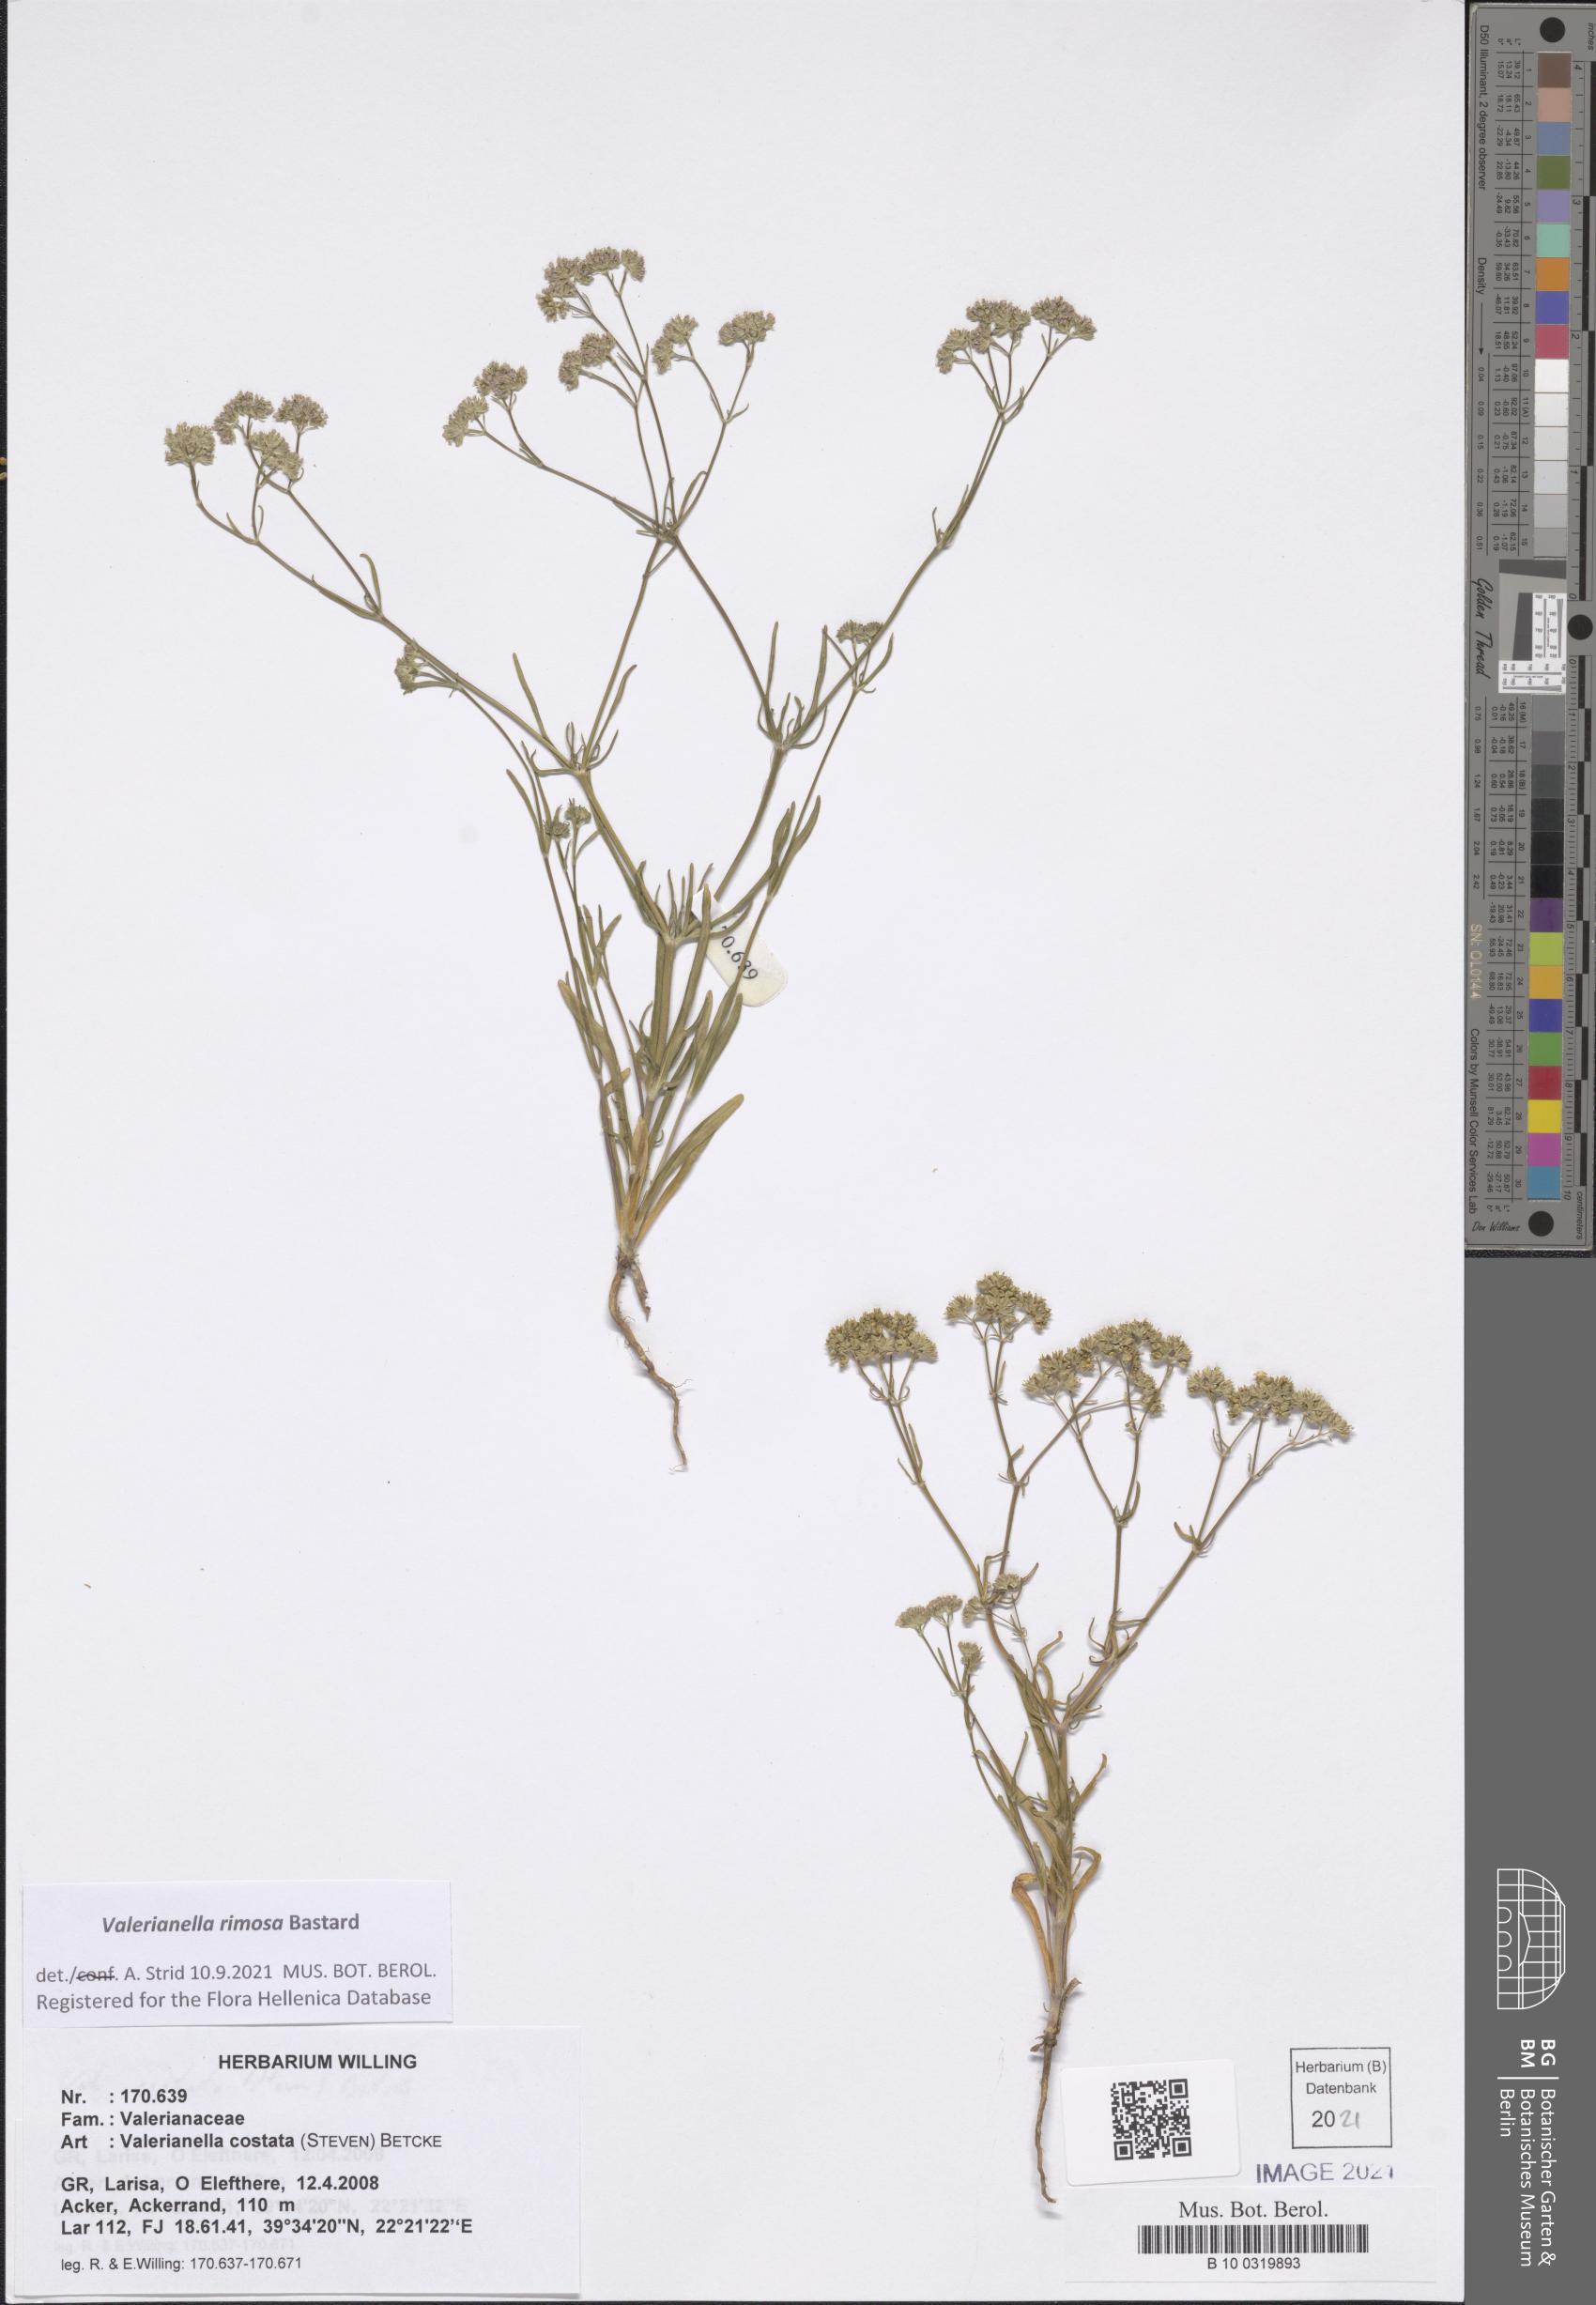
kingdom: Plantae
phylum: Tracheophyta
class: Magnoliopsida
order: Dipsacales
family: Caprifoliaceae
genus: Valerianella
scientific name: Valerianella rimosa
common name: Broad-fruited cornsalad
